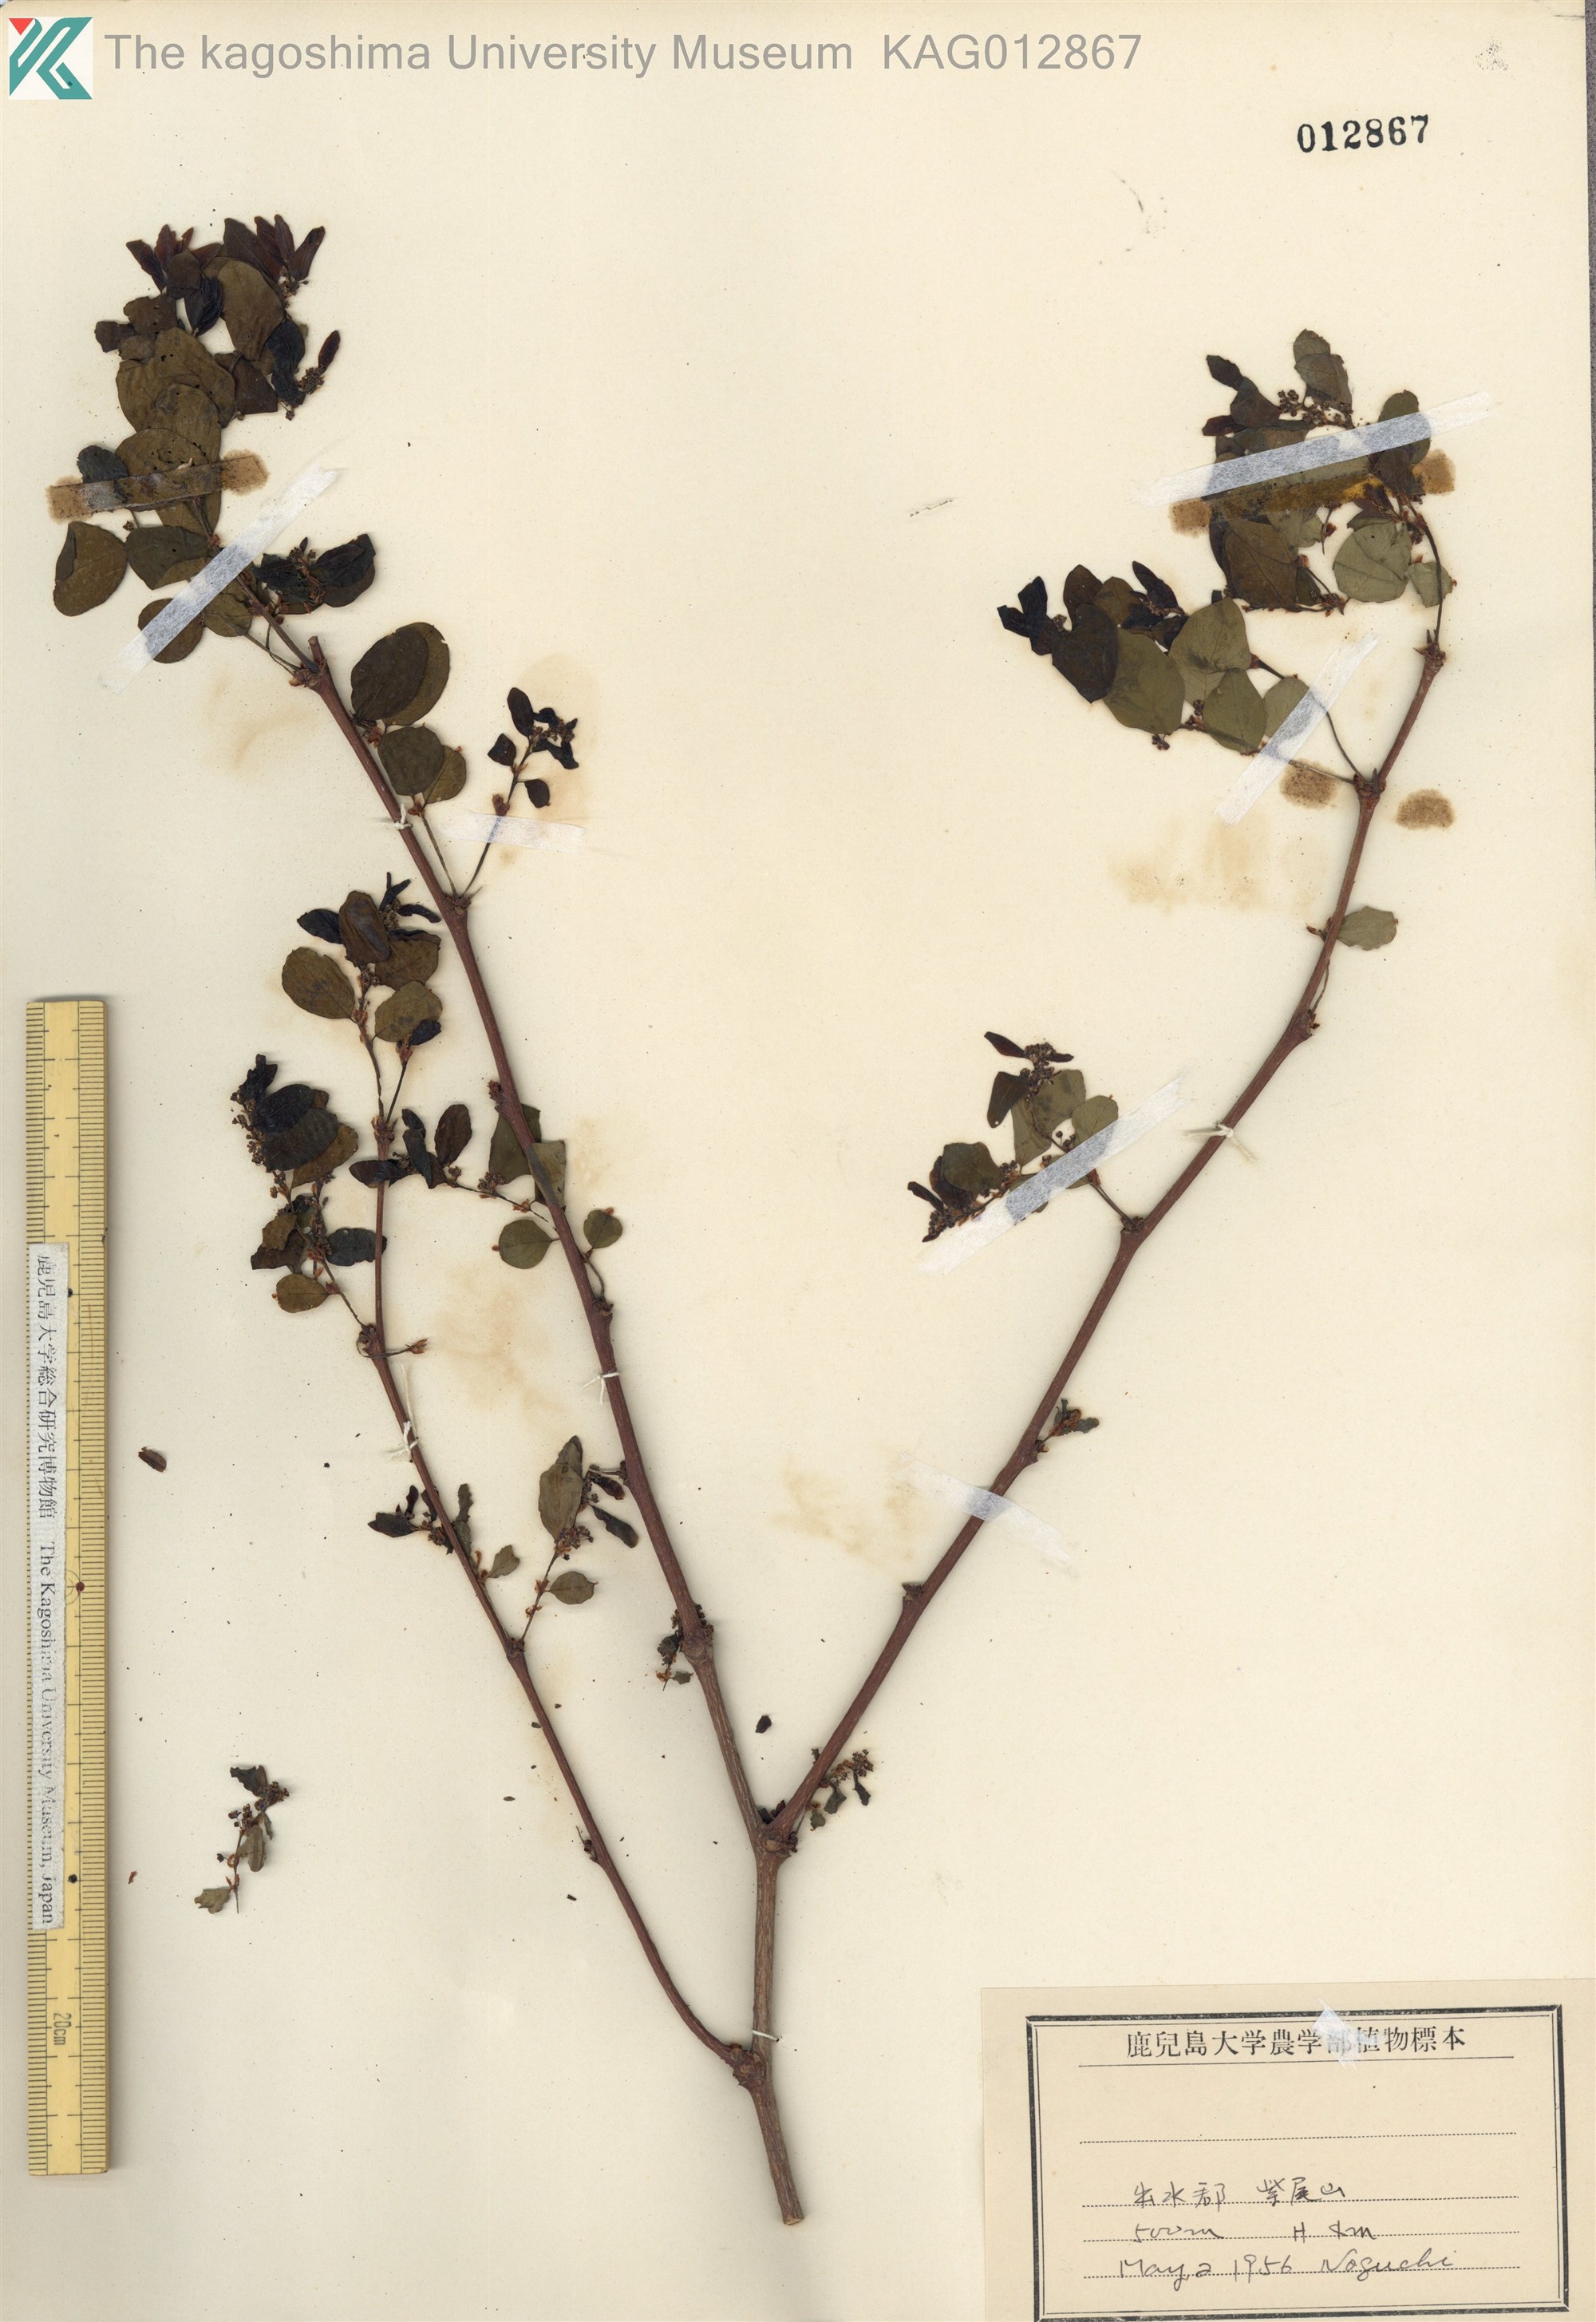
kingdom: Plantae
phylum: Tracheophyta
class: Magnoliopsida
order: Malpighiales
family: Phyllanthaceae
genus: Phyllanthus
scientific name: Phyllanthus flexuosus
